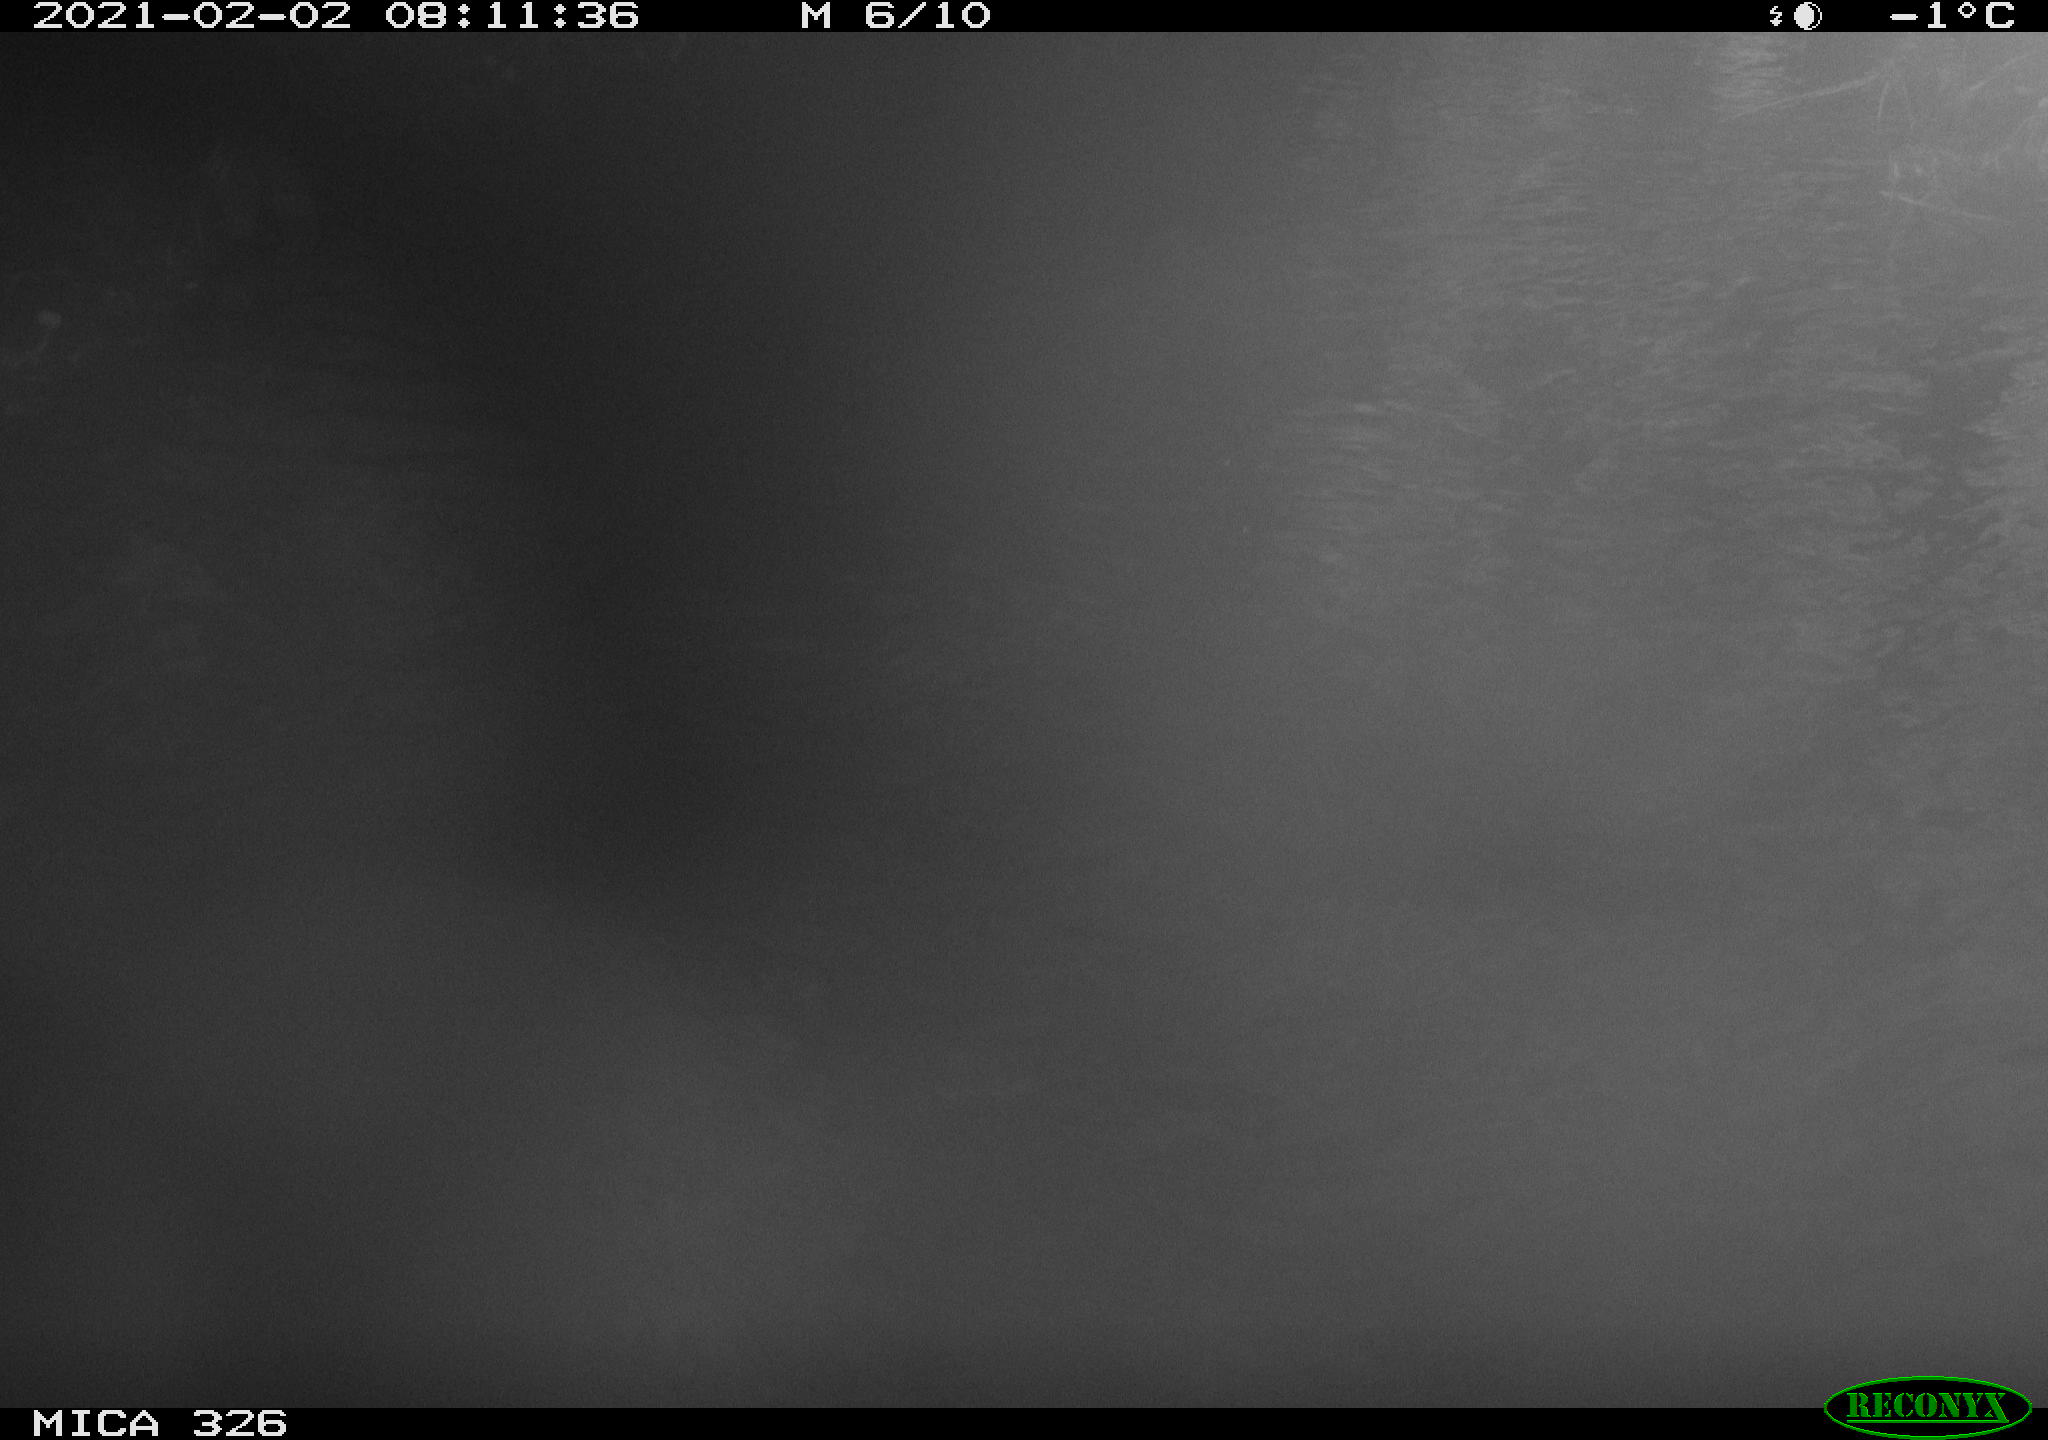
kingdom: Animalia
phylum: Chordata
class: Mammalia
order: Carnivora
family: Mustelidae
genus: Lutra
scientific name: Lutra lutra
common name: European otter
